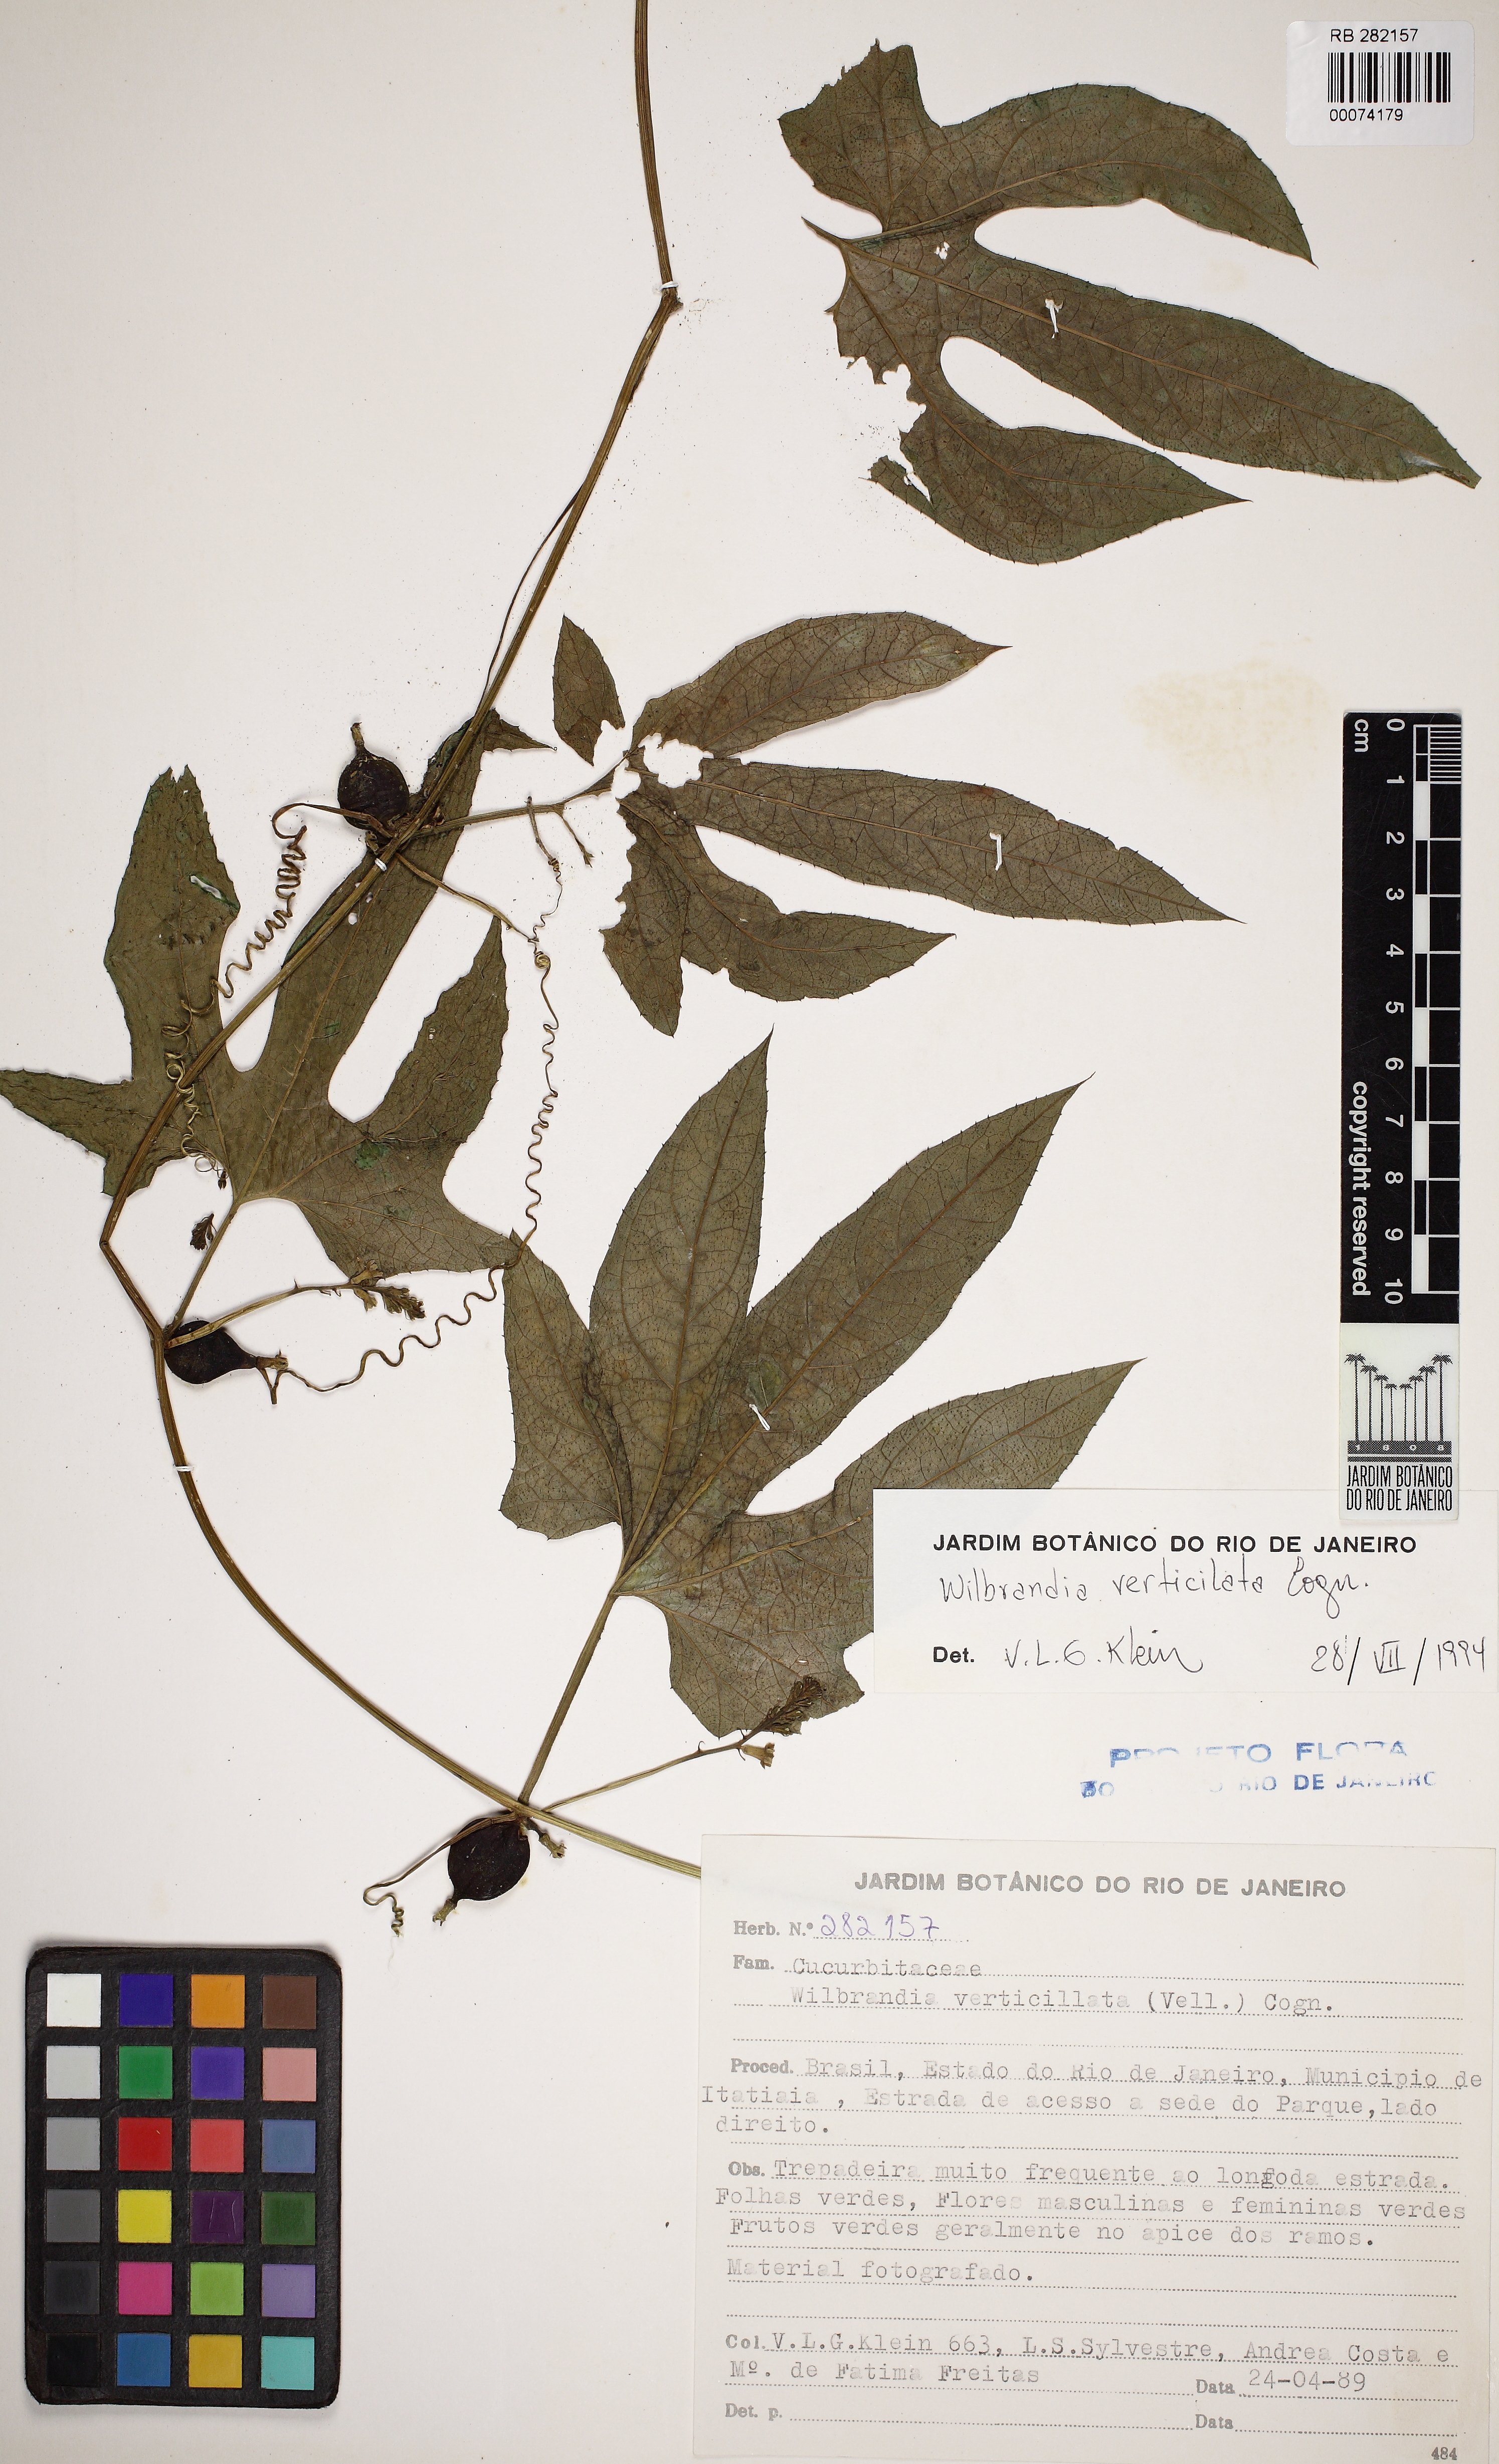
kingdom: Plantae
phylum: Tracheophyta
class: Magnoliopsida
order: Cucurbitales
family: Cucurbitaceae
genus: Wilbrandia
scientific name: Wilbrandia verticillata
